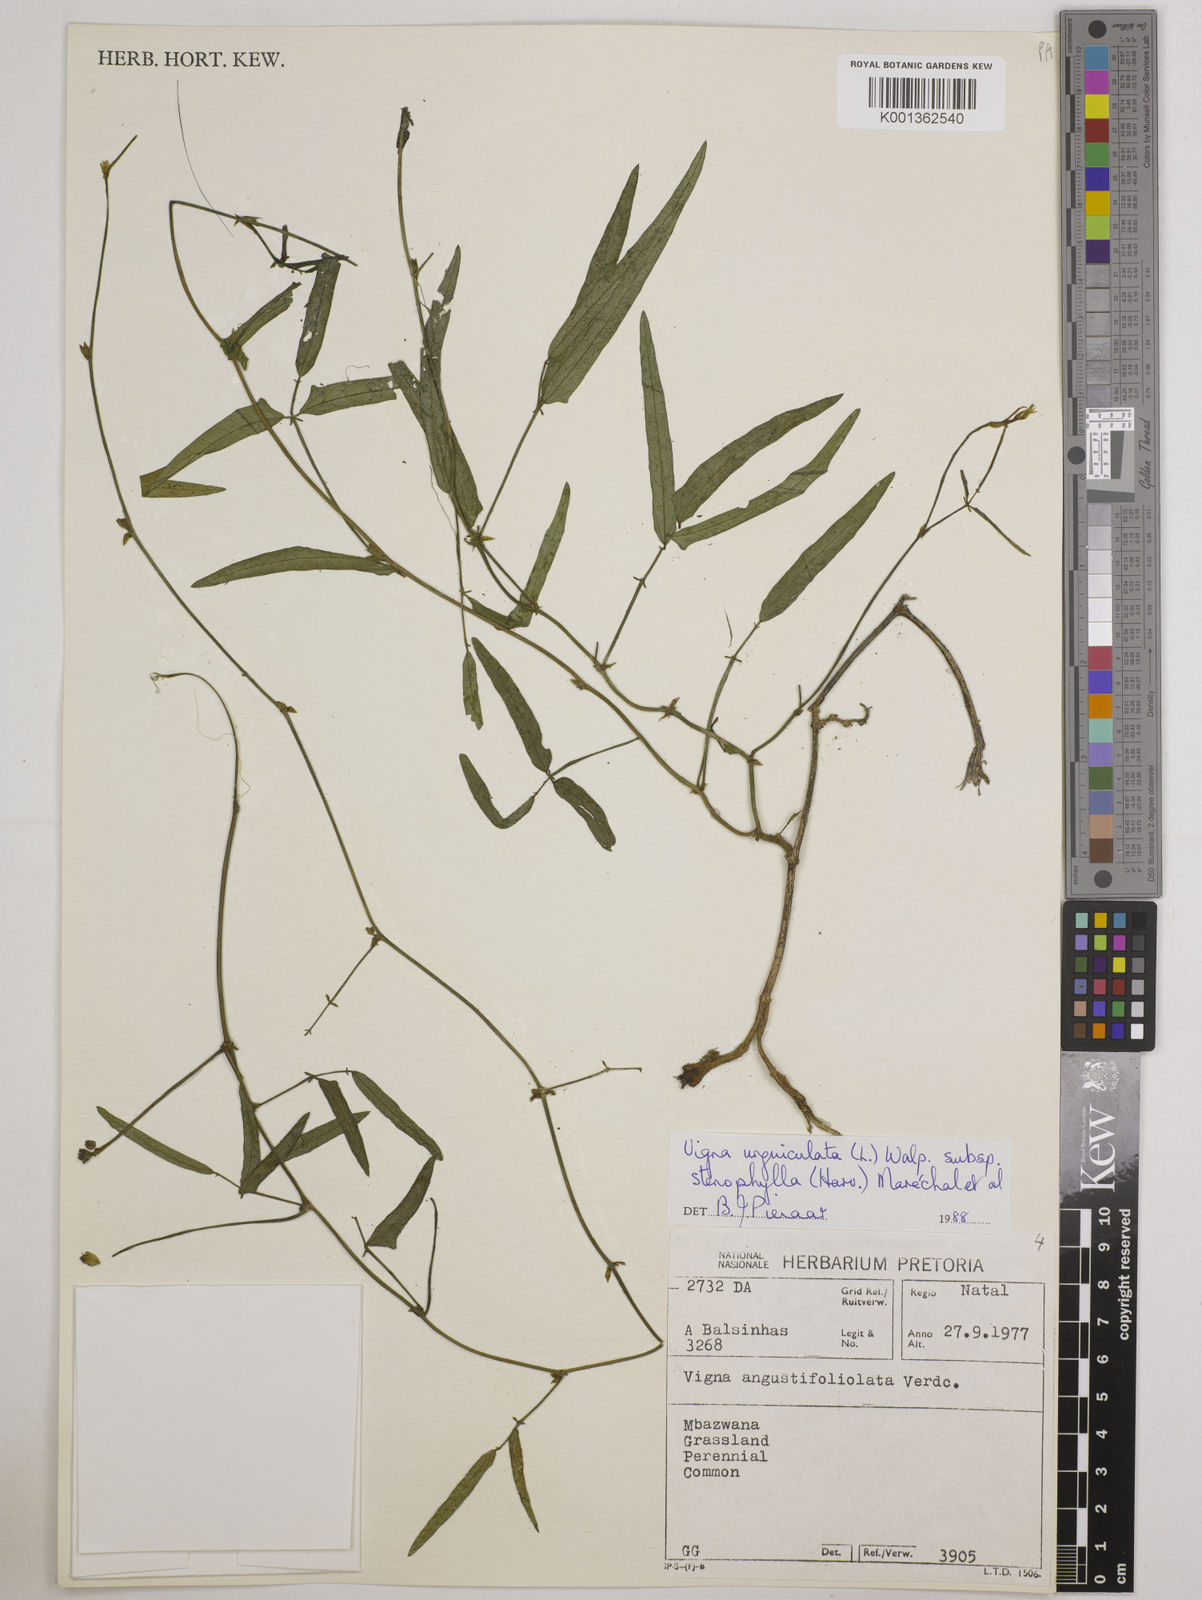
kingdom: Plantae
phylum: Tracheophyta
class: Magnoliopsida
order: Fabales
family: Fabaceae
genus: Vigna
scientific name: Vigna
